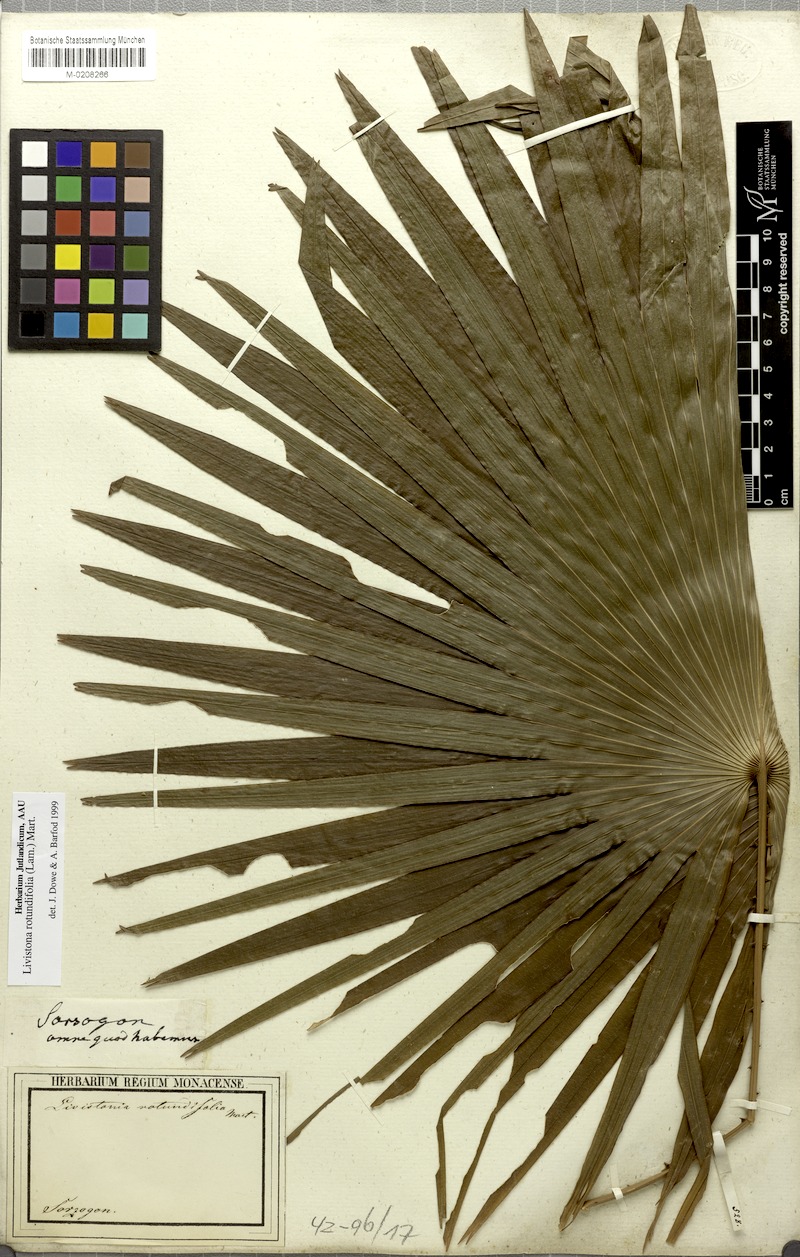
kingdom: Plantae
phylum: Tracheophyta
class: Liliopsida
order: Arecales
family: Arecaceae
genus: Saribus
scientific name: Saribus rotundifolius
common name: Palm
